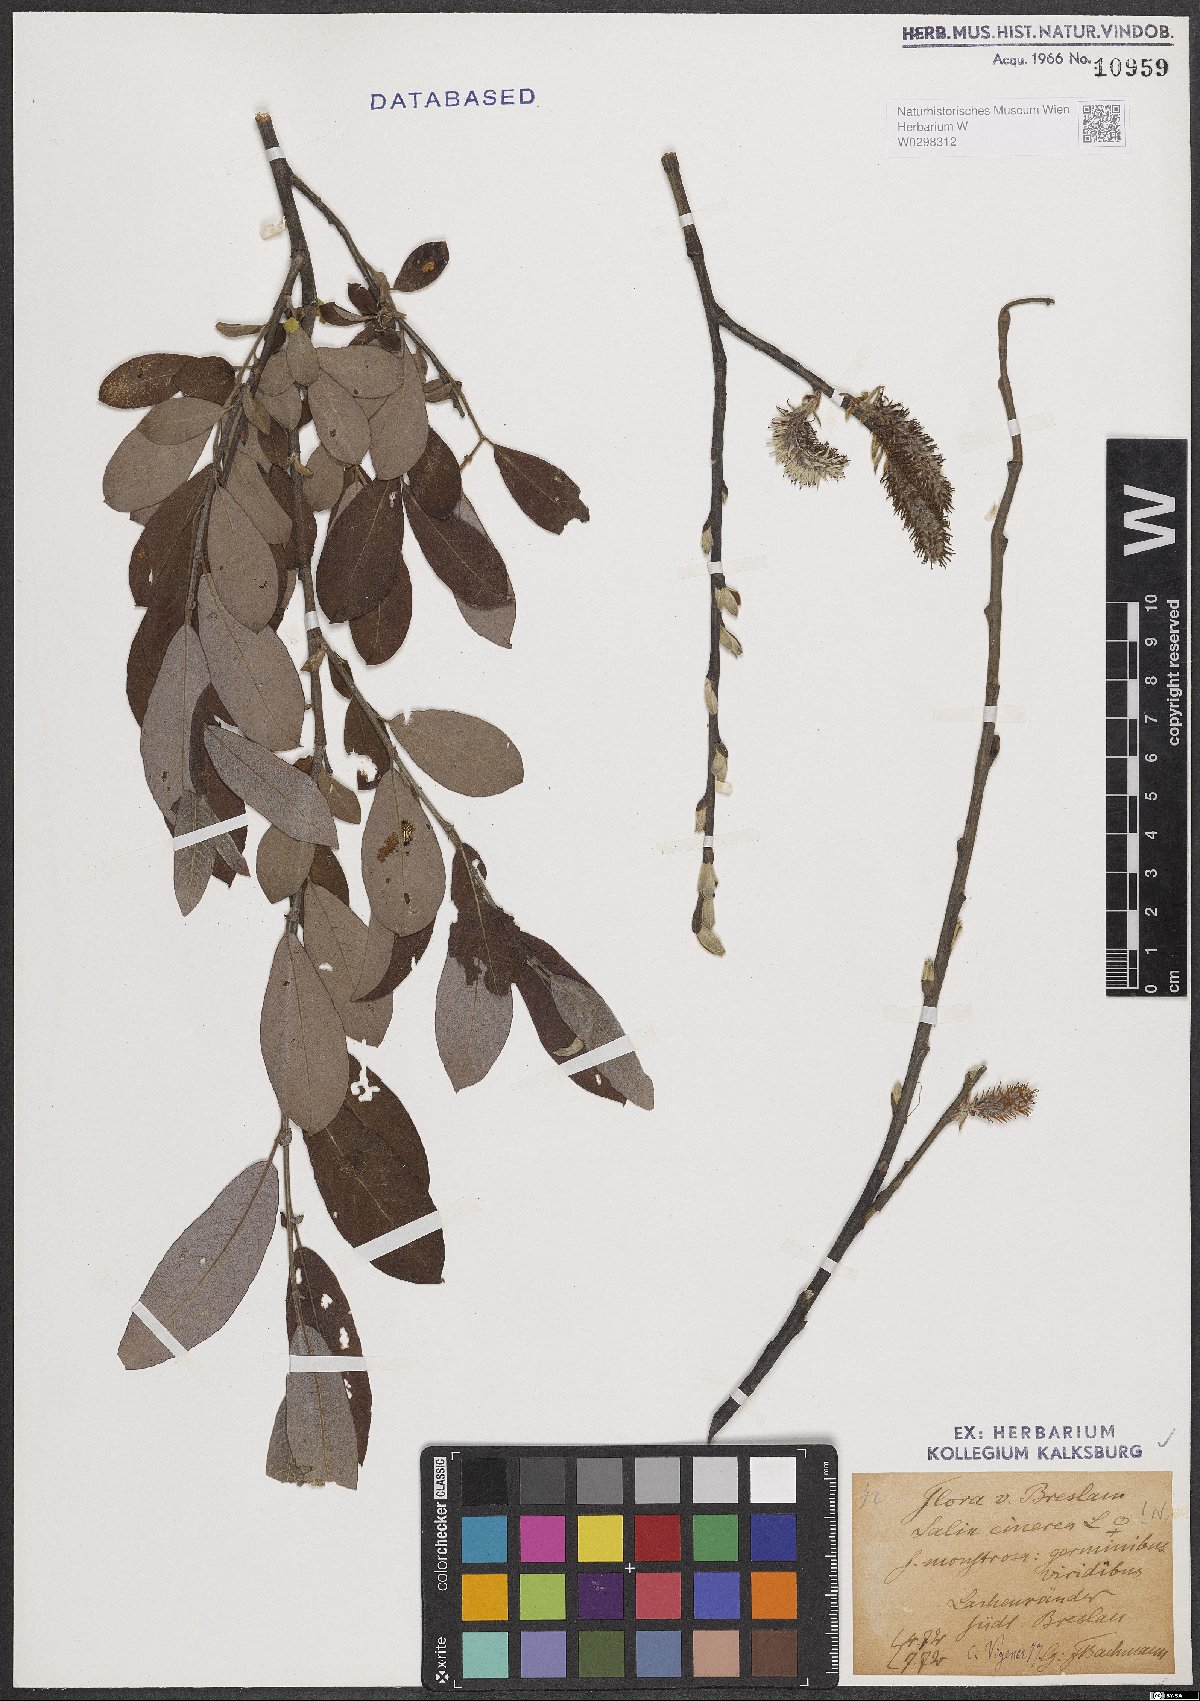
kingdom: Plantae
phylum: Tracheophyta
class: Magnoliopsida
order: Malpighiales
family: Salicaceae
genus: Salix
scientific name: Salix cinerea
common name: Common sallow
